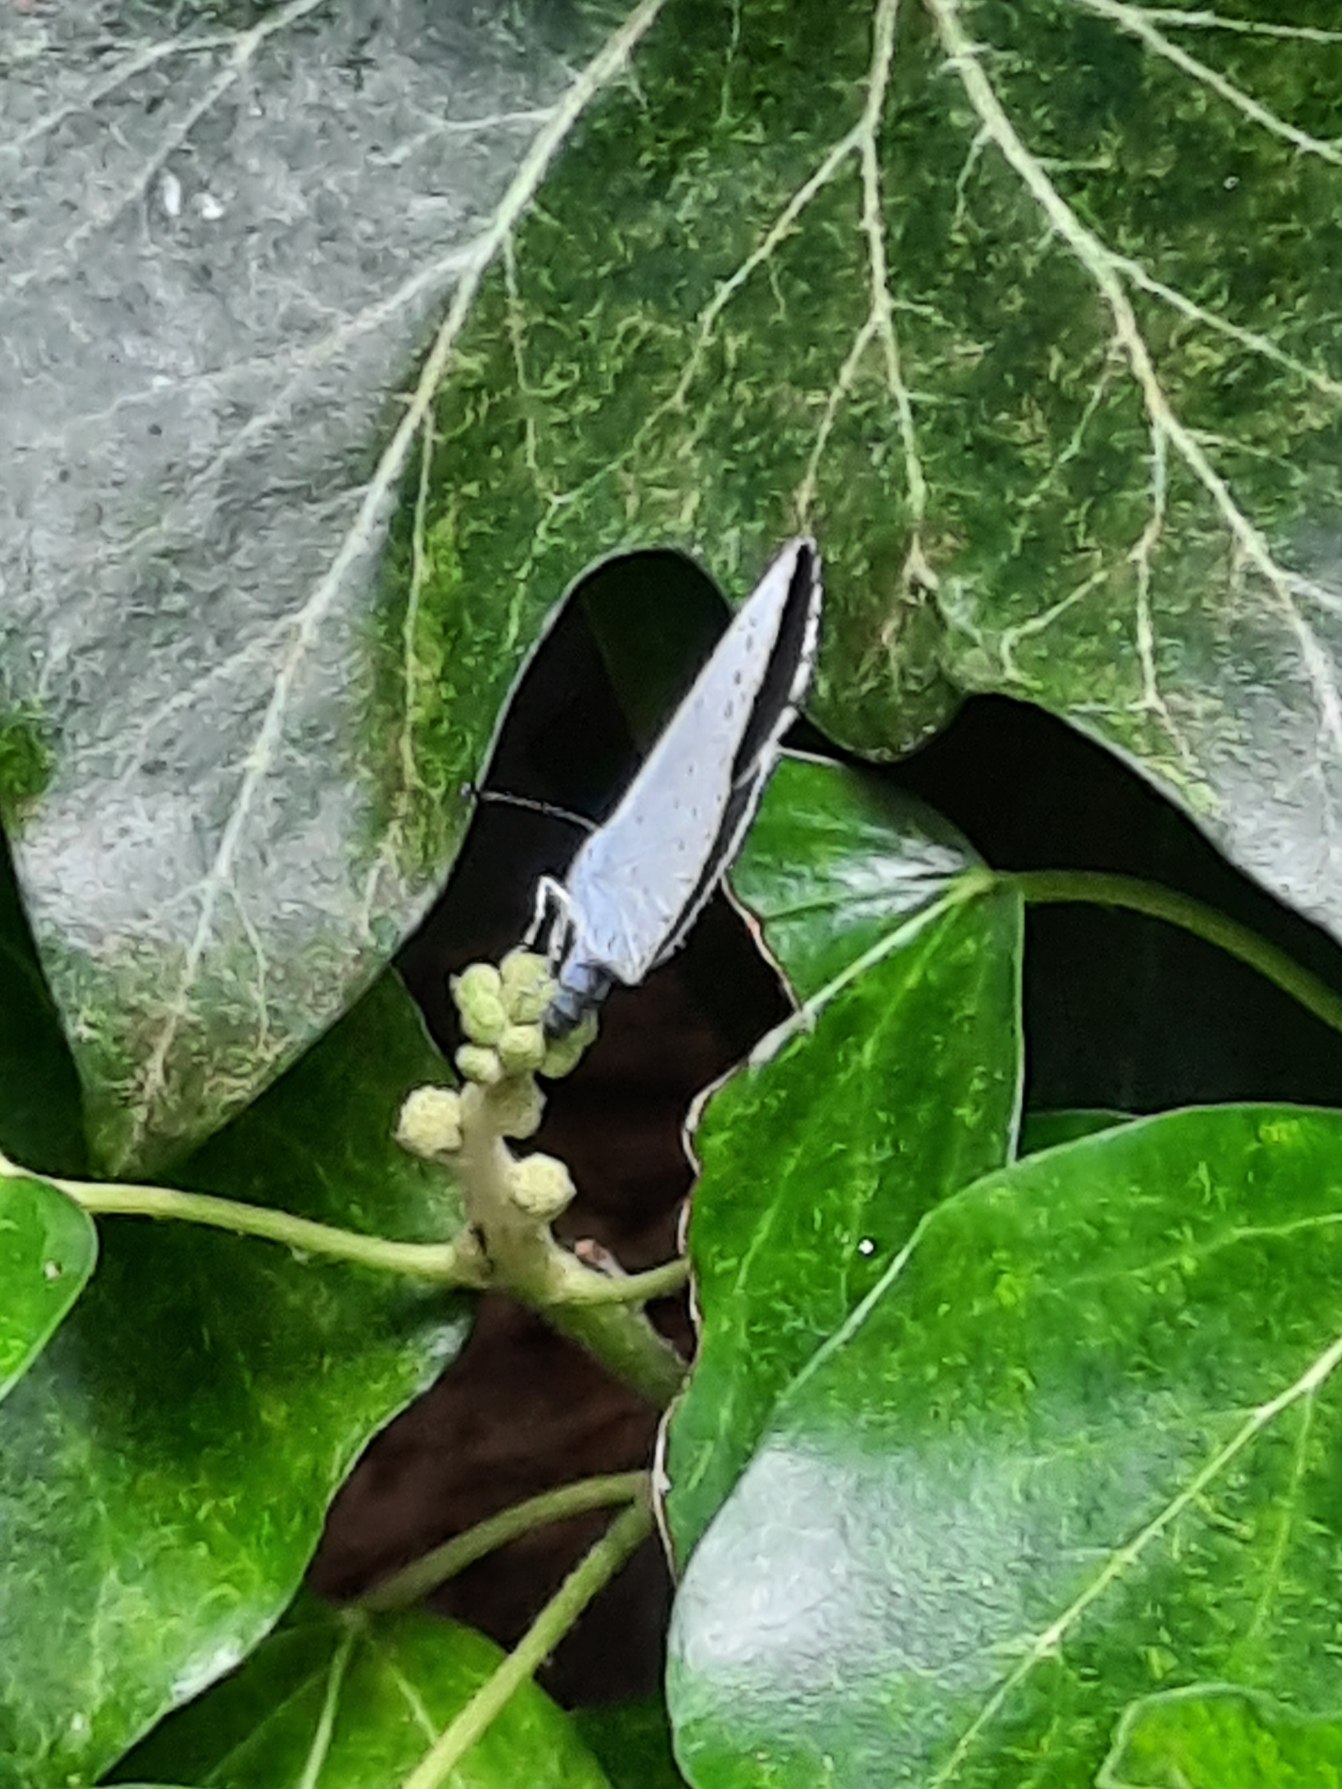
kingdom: Animalia
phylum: Arthropoda
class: Insecta
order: Lepidoptera
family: Lycaenidae
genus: Celastrina
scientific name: Celastrina argiolus
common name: Skovblåfugl
